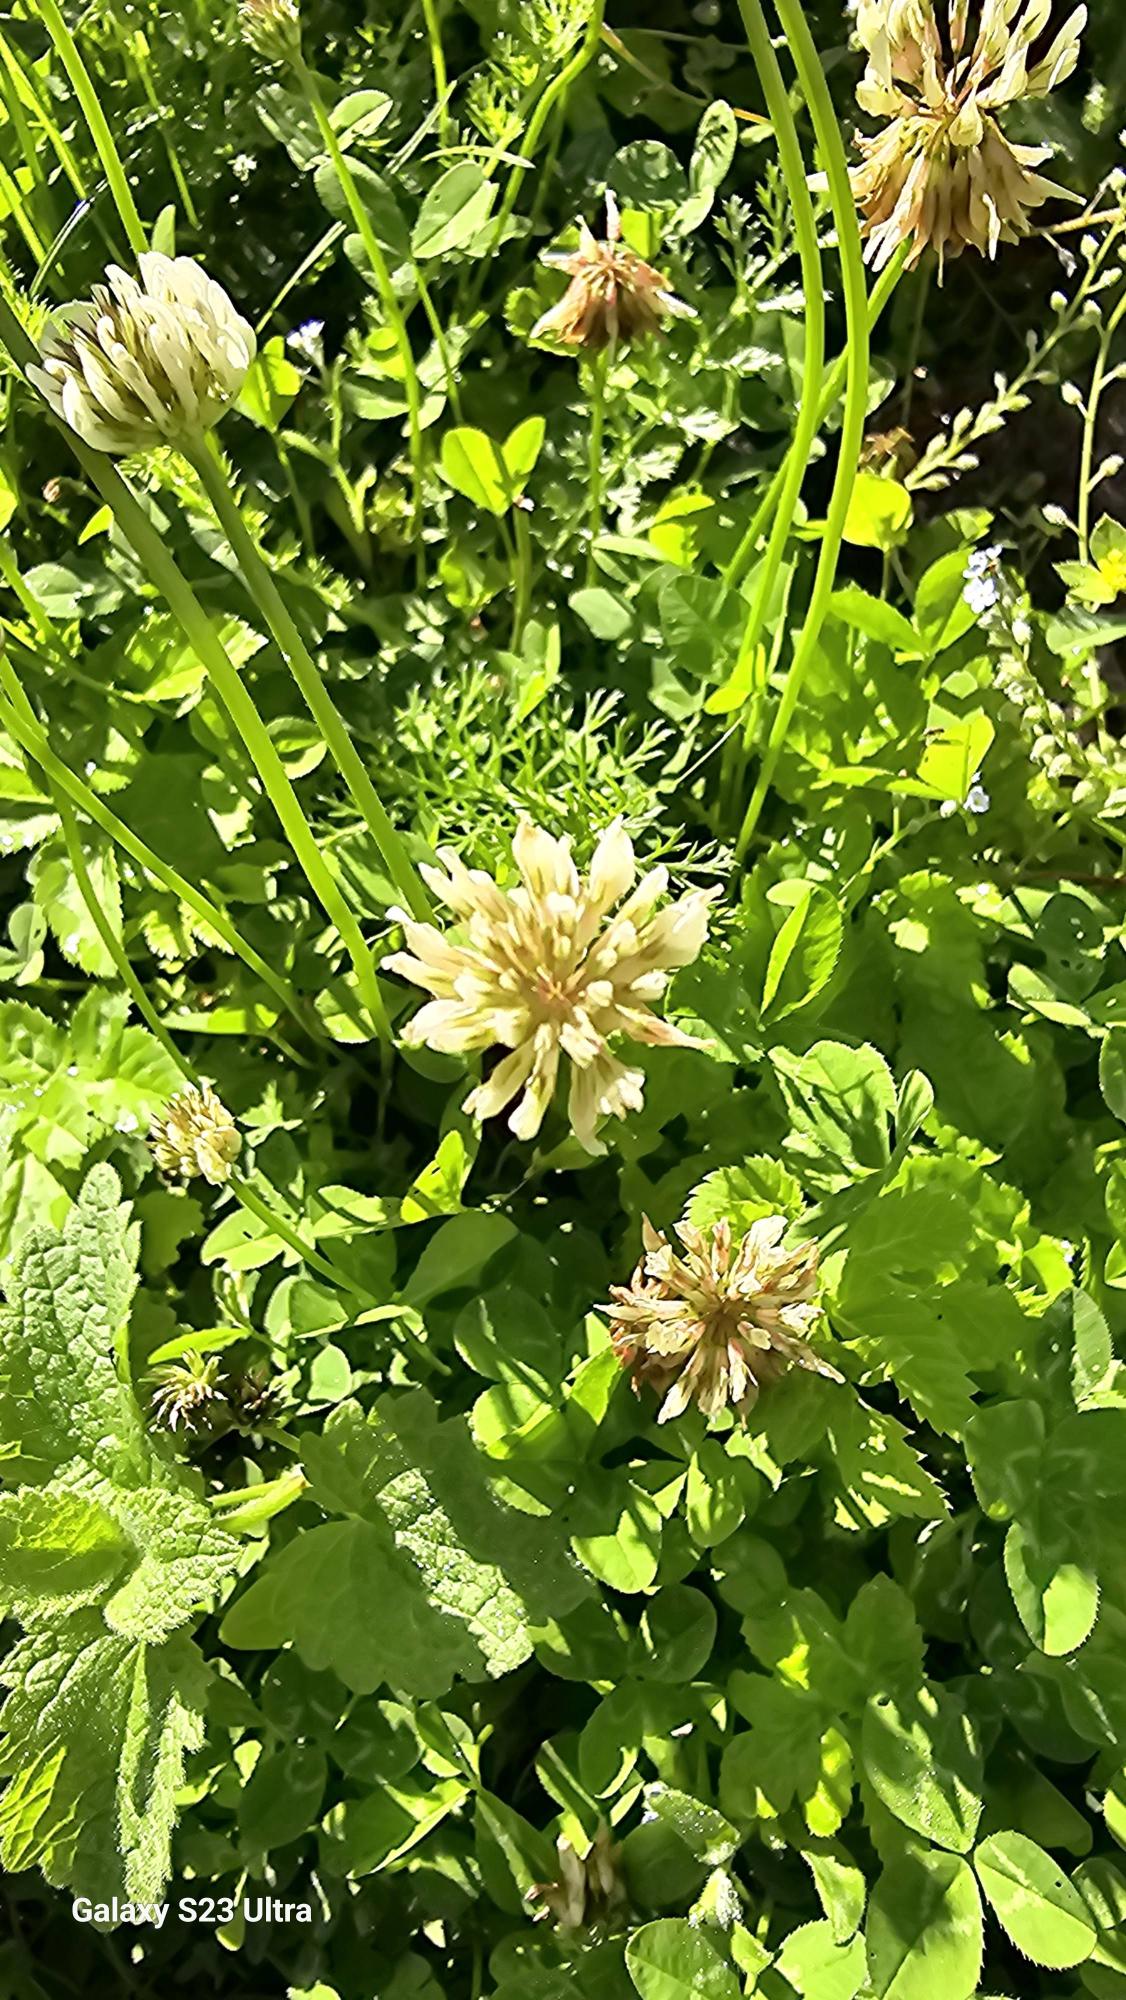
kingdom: Plantae
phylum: Tracheophyta
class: Magnoliopsida
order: Fabales
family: Fabaceae
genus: Trifolium
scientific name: Trifolium repens
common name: Hvid-kløver
